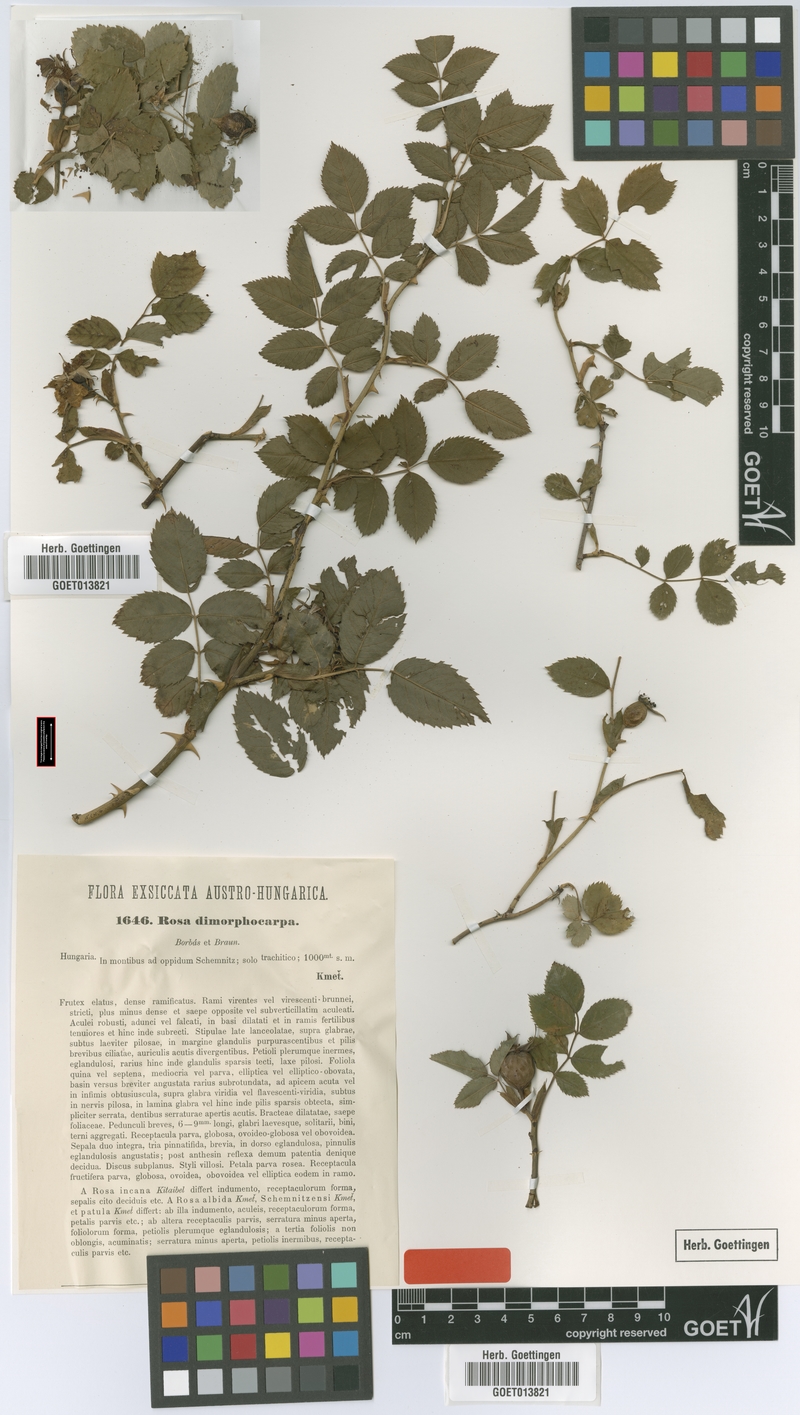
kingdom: Plantae
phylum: Tracheophyta
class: Magnoliopsida
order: Rosales
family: Rosaceae
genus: Rosa
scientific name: Rosa subcanina
